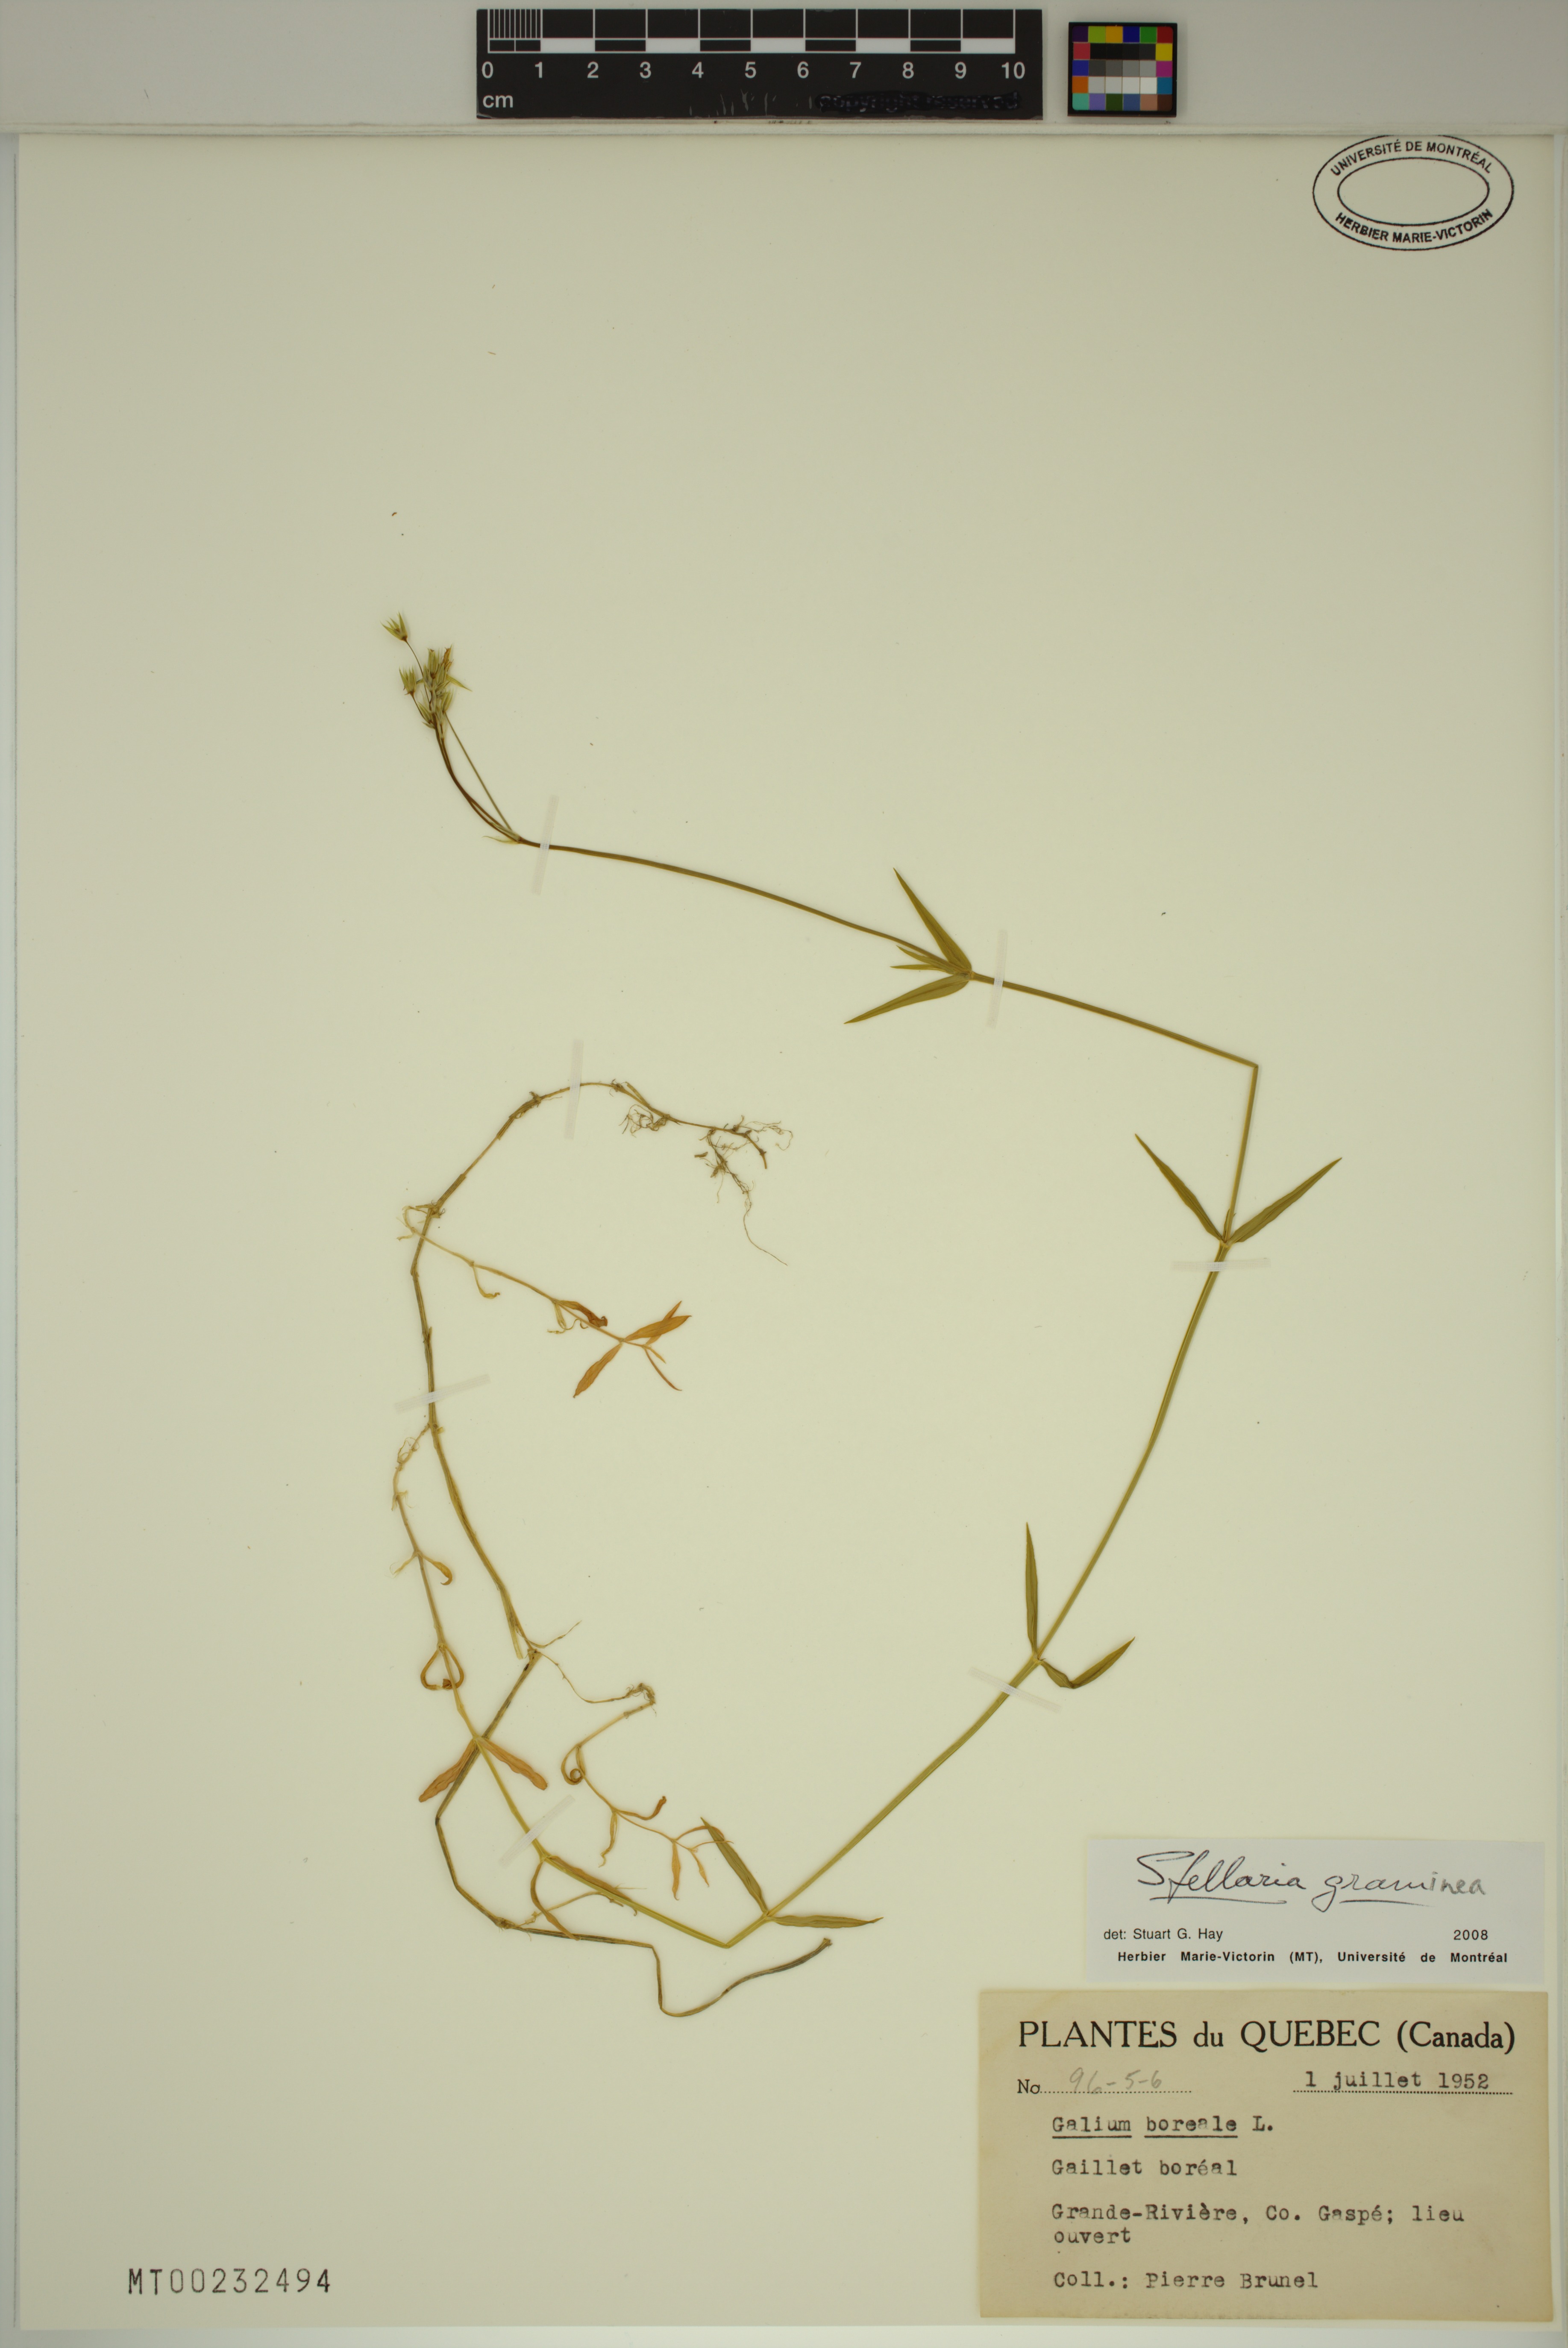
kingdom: Plantae
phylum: Tracheophyta
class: Magnoliopsida
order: Caryophyllales
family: Caryophyllaceae
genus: Stellaria
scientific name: Stellaria graminea
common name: Grass-like starwort
